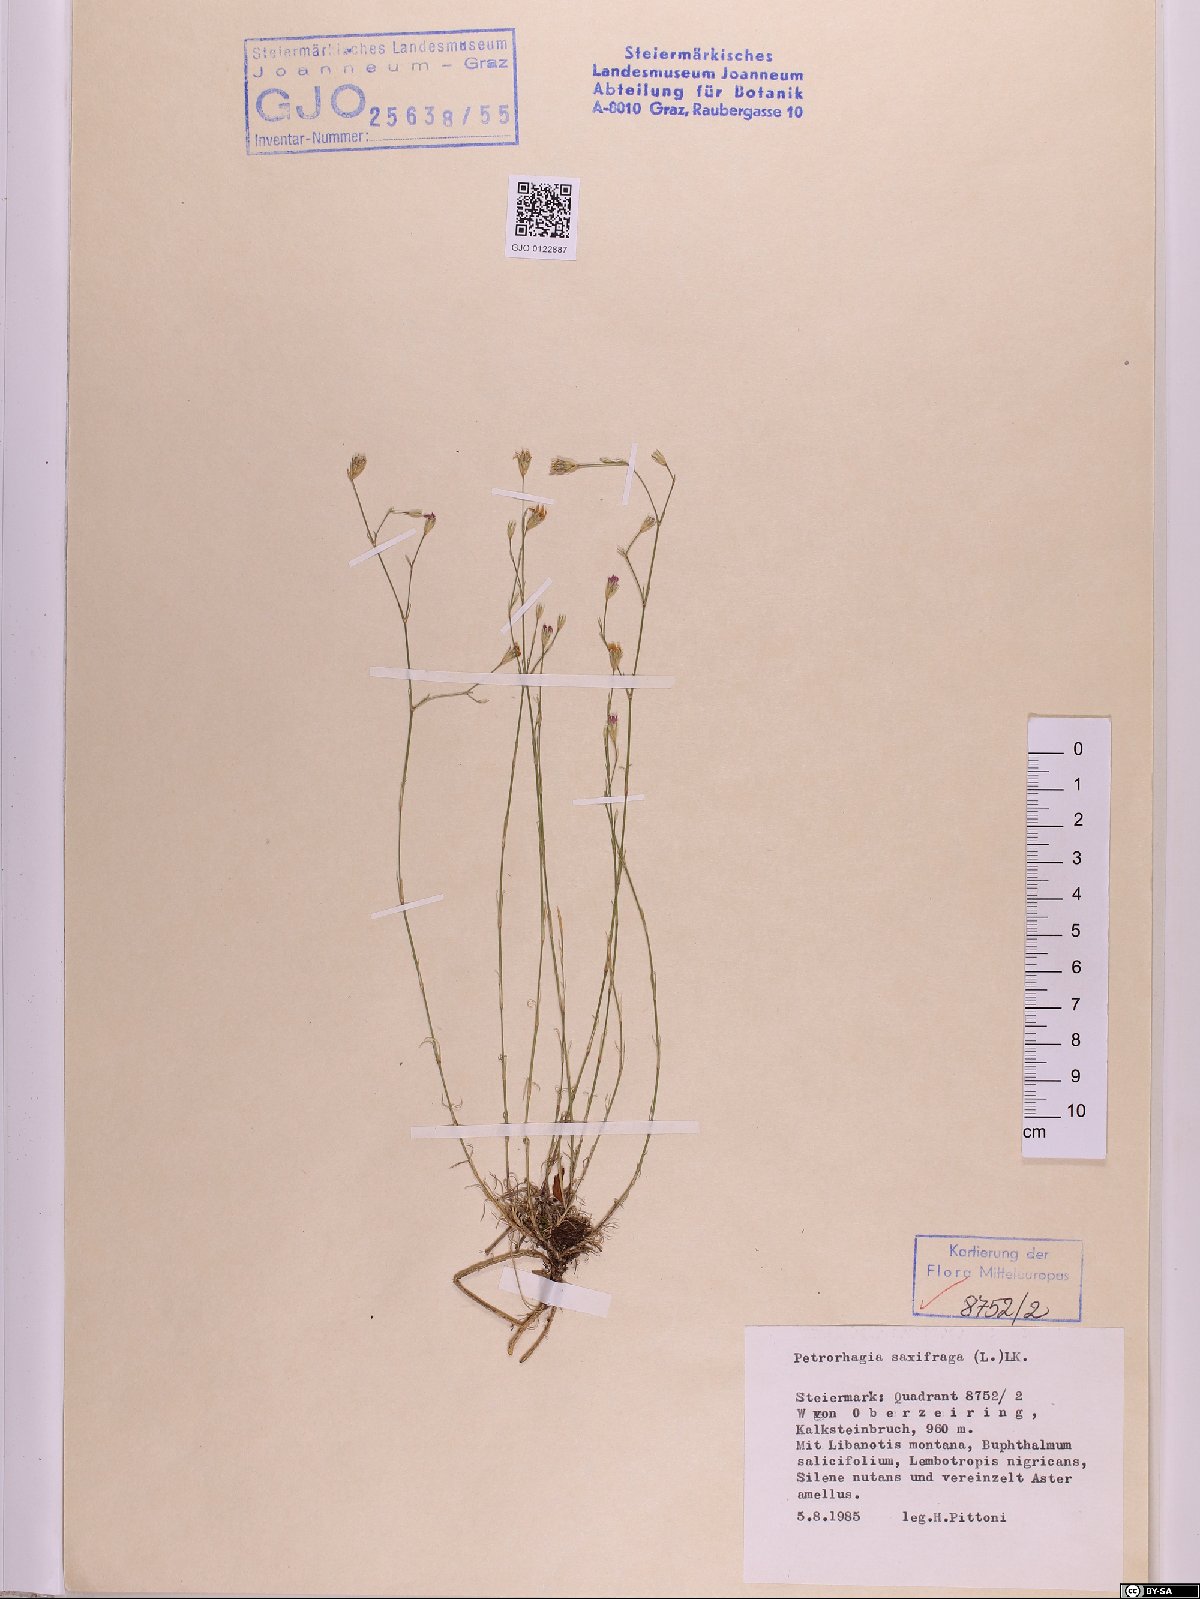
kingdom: Plantae
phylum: Tracheophyta
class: Magnoliopsida
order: Caryophyllales
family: Caryophyllaceae
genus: Petrorhagia
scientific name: Petrorhagia saxifraga
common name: Tunicflower
